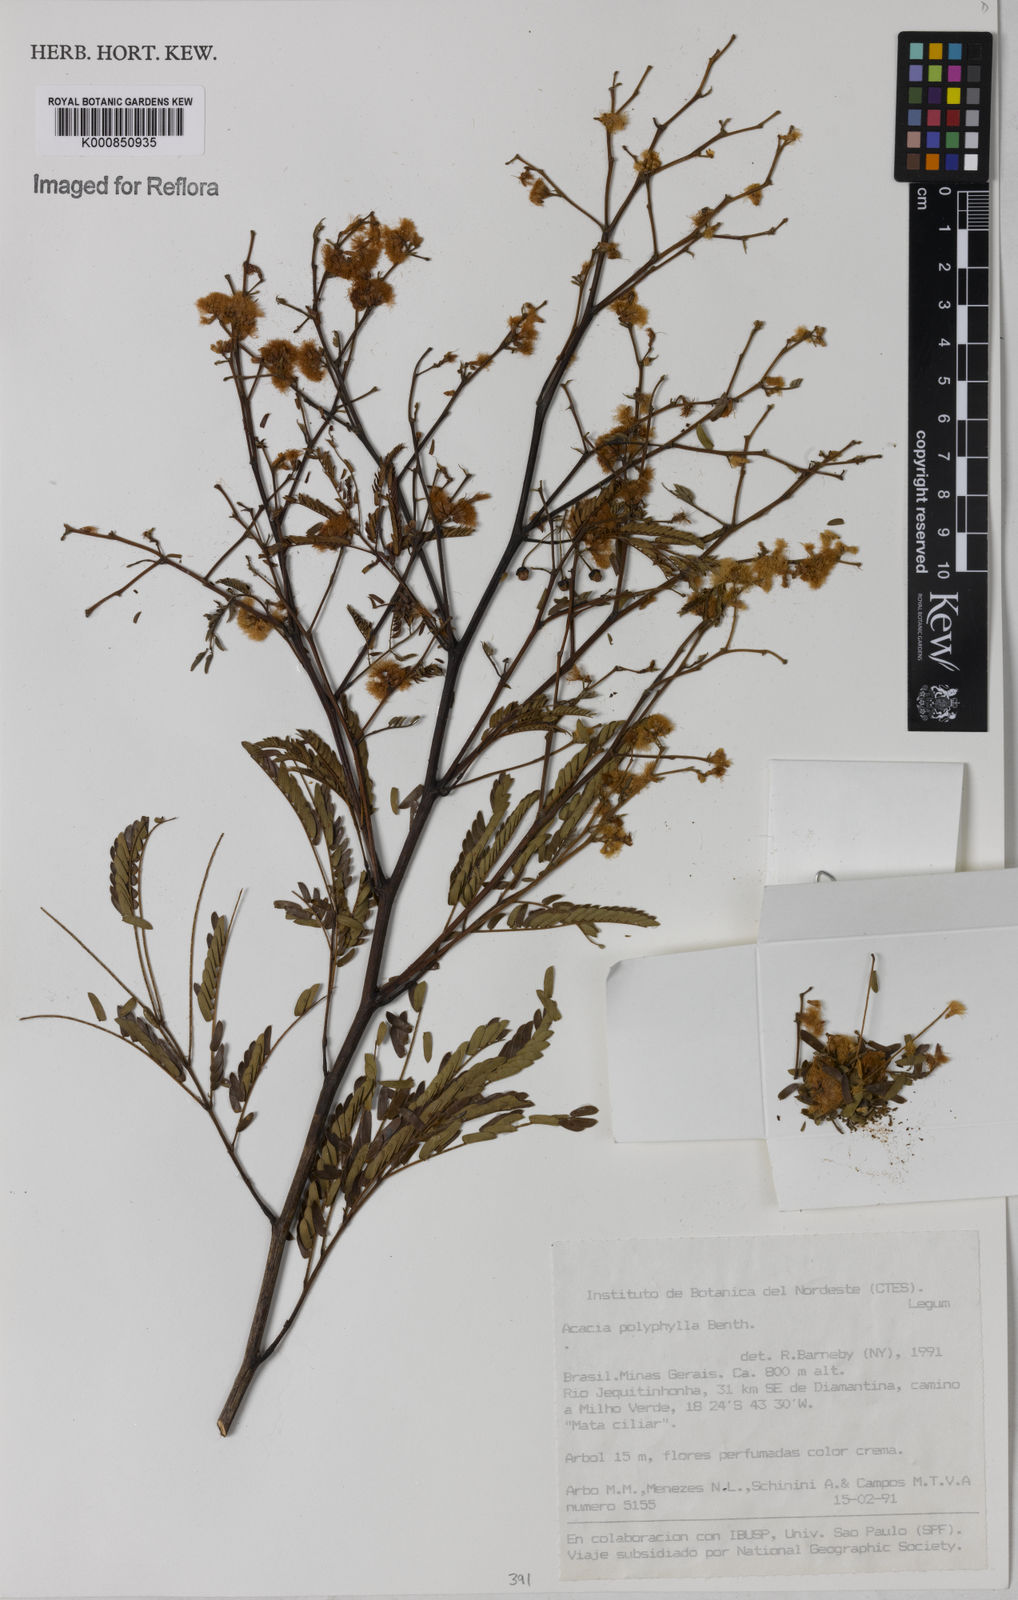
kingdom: Plantae
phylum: Tracheophyta
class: Magnoliopsida
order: Fabales
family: Fabaceae
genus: Senegalia
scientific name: Senegalia polyphylla
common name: White-tamarind
